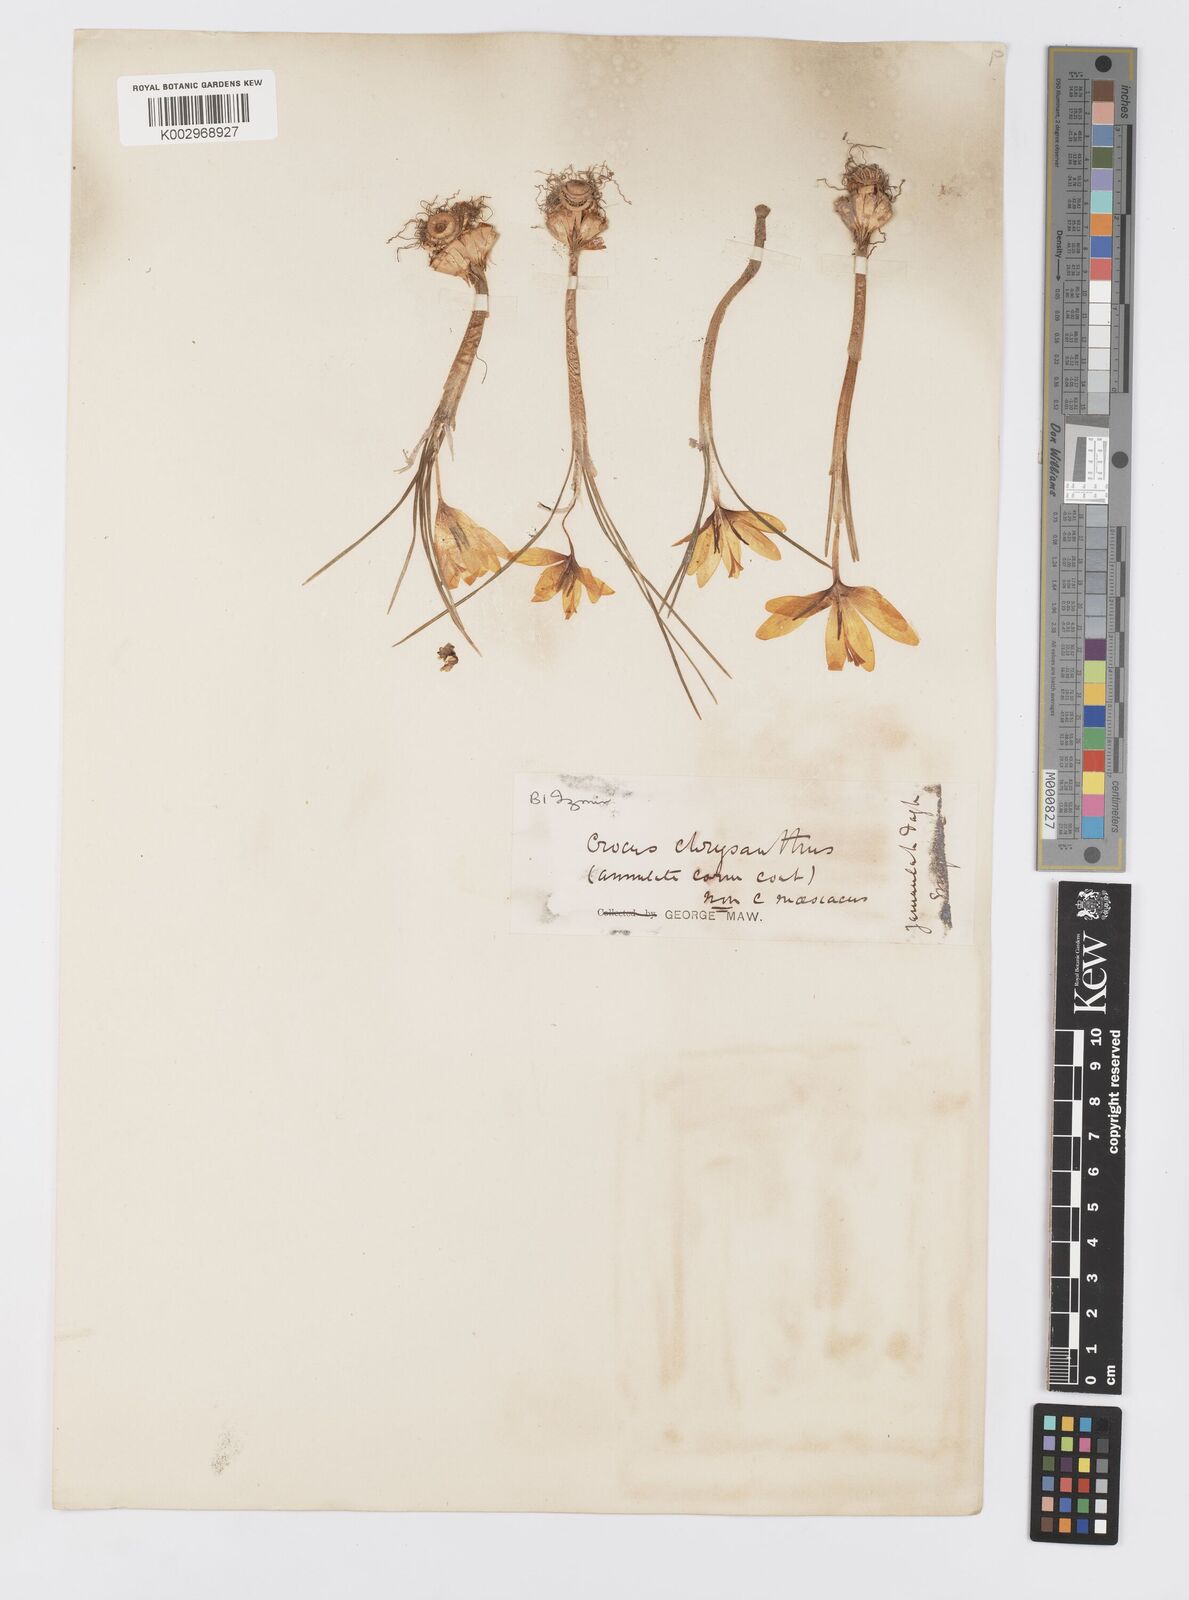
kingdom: Plantae
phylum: Tracheophyta
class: Liliopsida
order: Asparagales
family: Iridaceae
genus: Crocus
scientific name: Crocus
